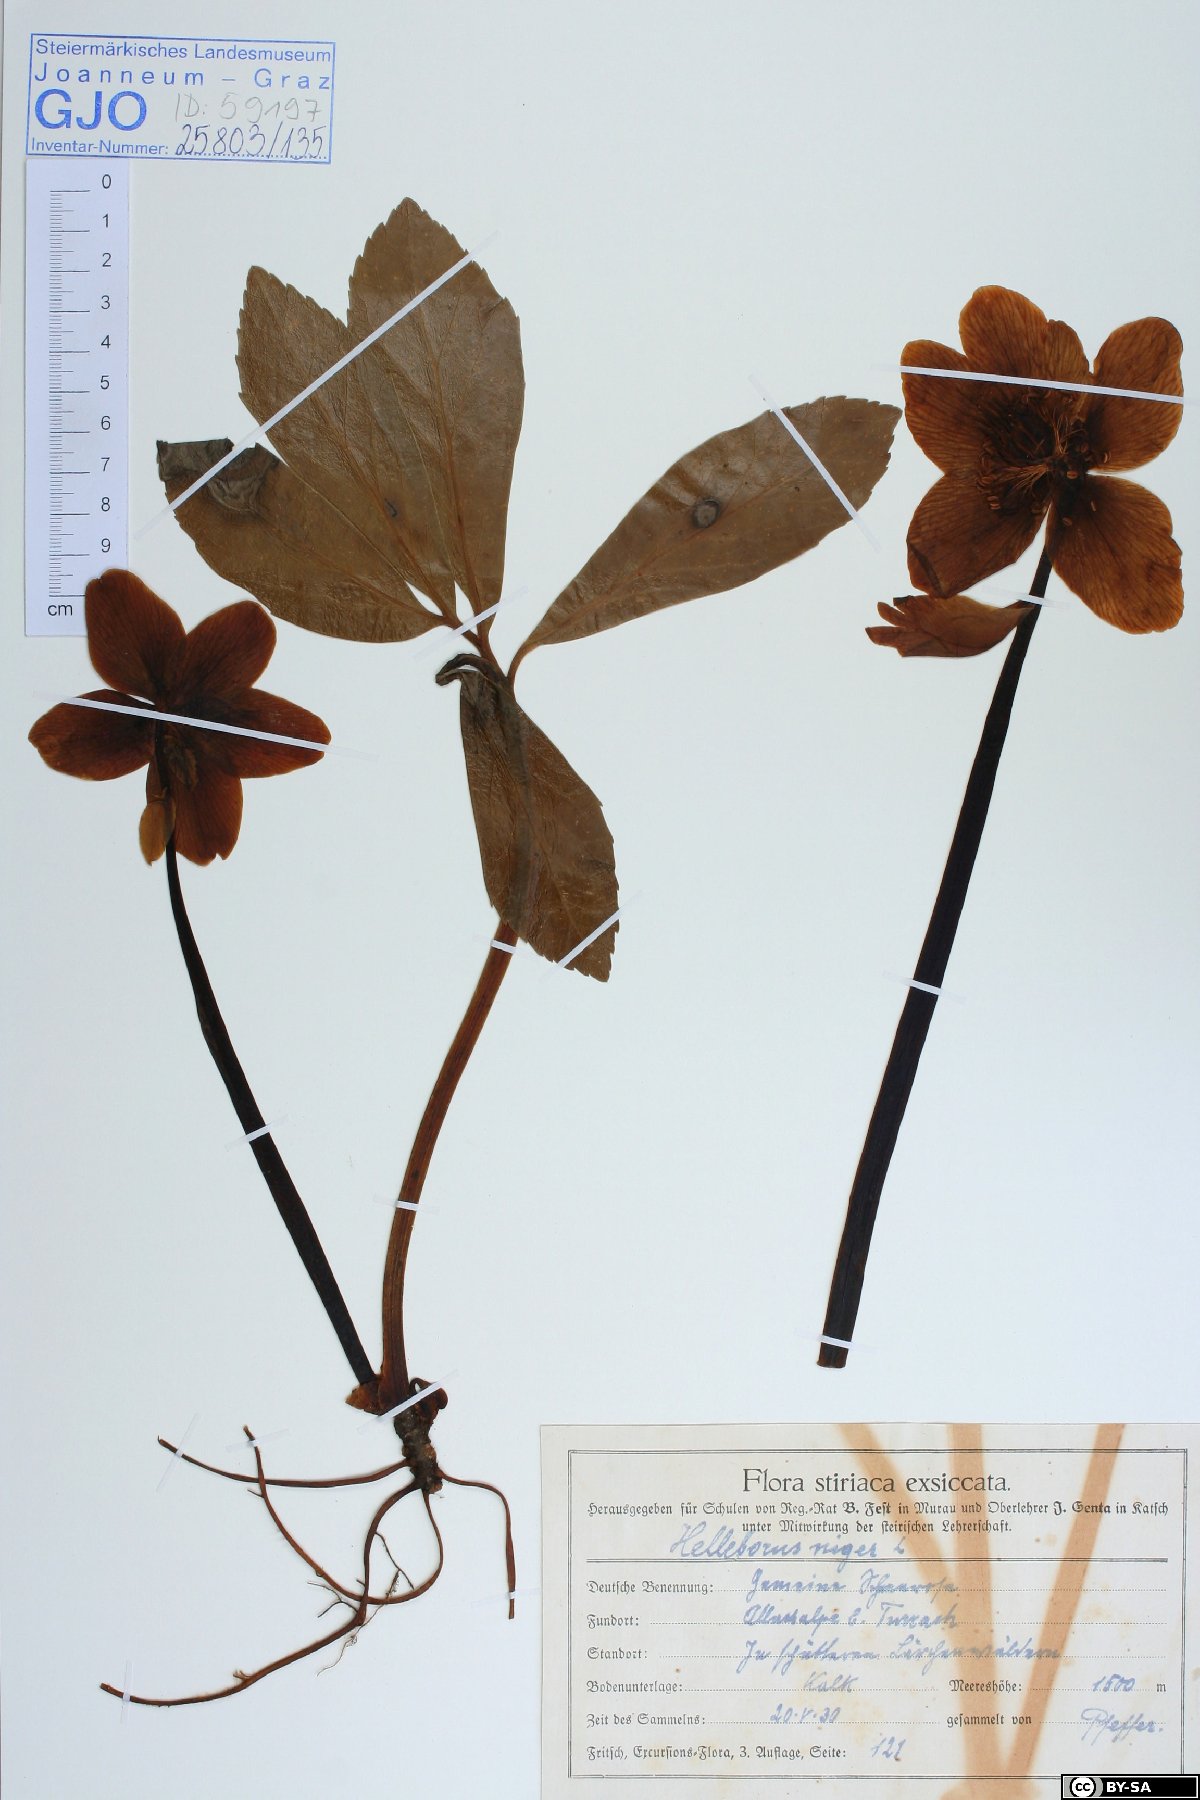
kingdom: Plantae
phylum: Tracheophyta
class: Magnoliopsida
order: Ranunculales
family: Ranunculaceae
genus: Helleborus
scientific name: Helleborus niger
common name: Black hellebore
